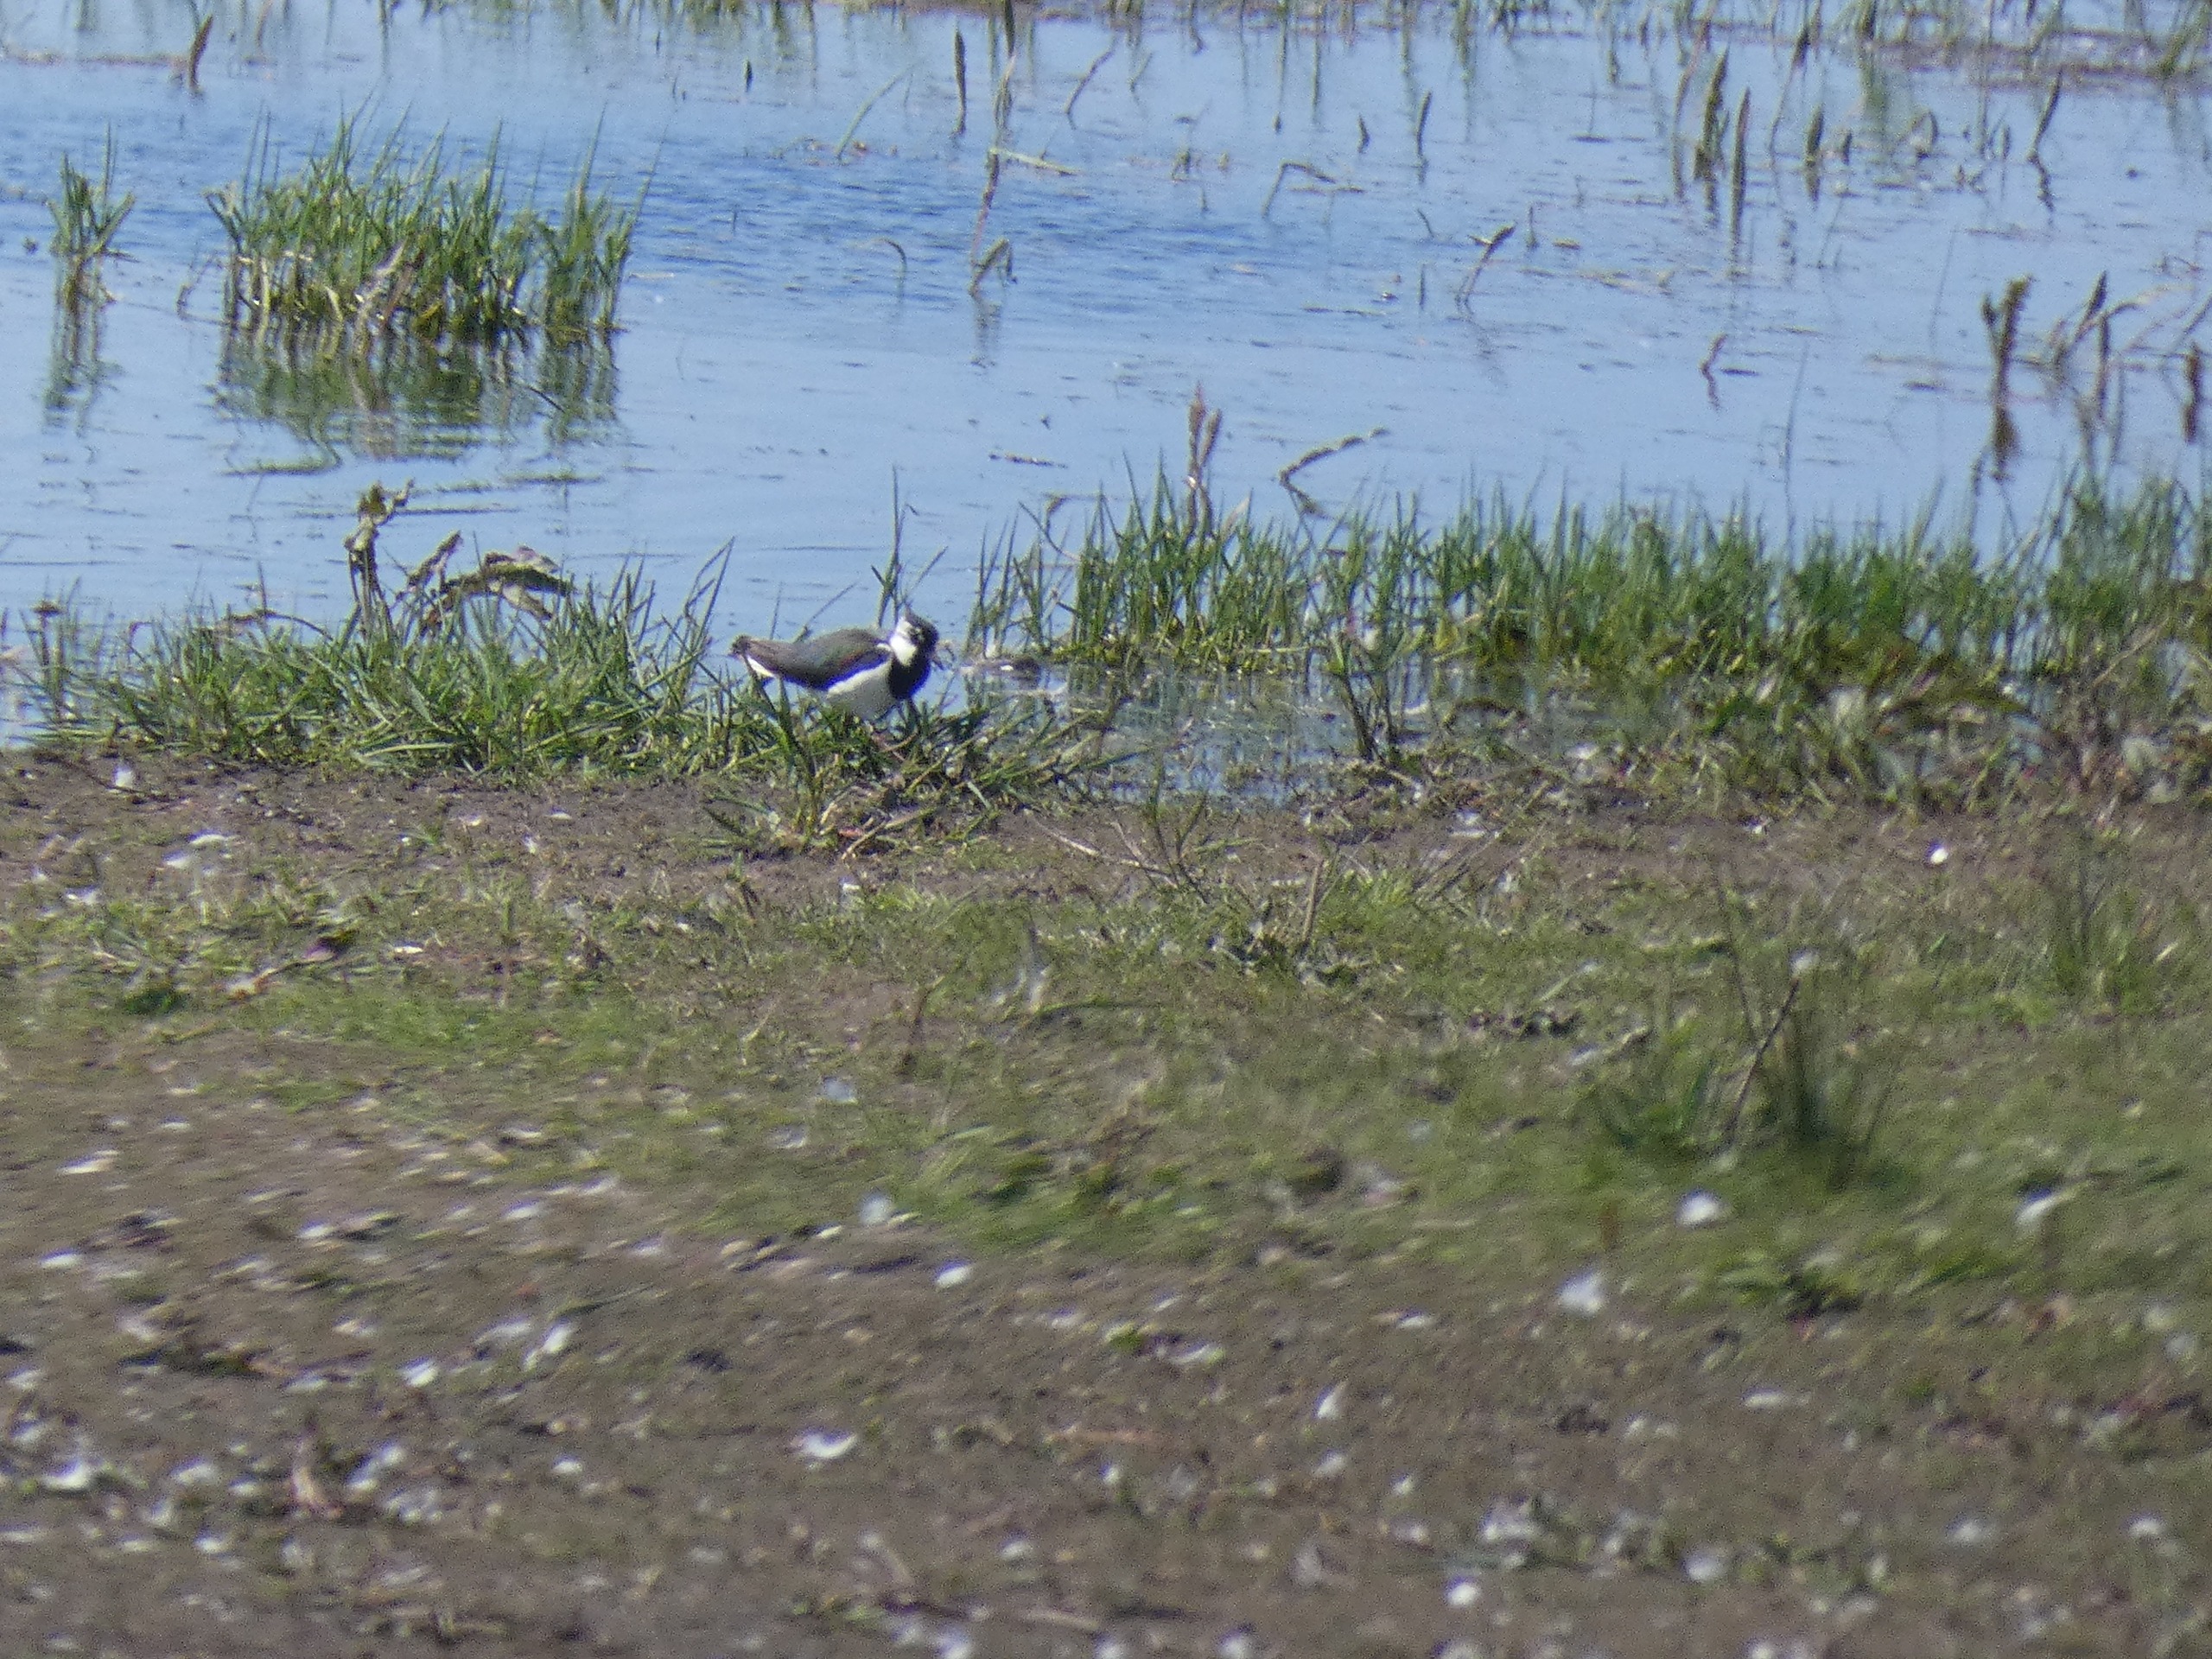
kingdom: Animalia
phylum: Chordata
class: Aves
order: Charadriiformes
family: Charadriidae
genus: Vanellus
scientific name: Vanellus vanellus
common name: Vibe
